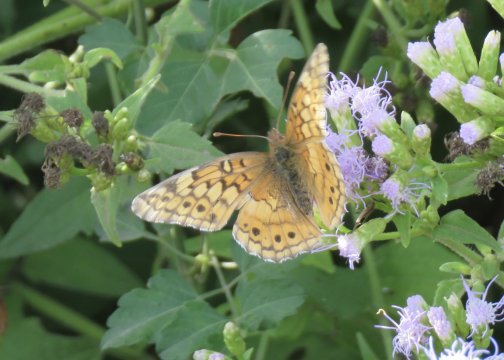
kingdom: Animalia
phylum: Arthropoda
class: Insecta
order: Lepidoptera
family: Nymphalidae
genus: Euptoieta
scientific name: Euptoieta claudia
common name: Variegated Fritillary
